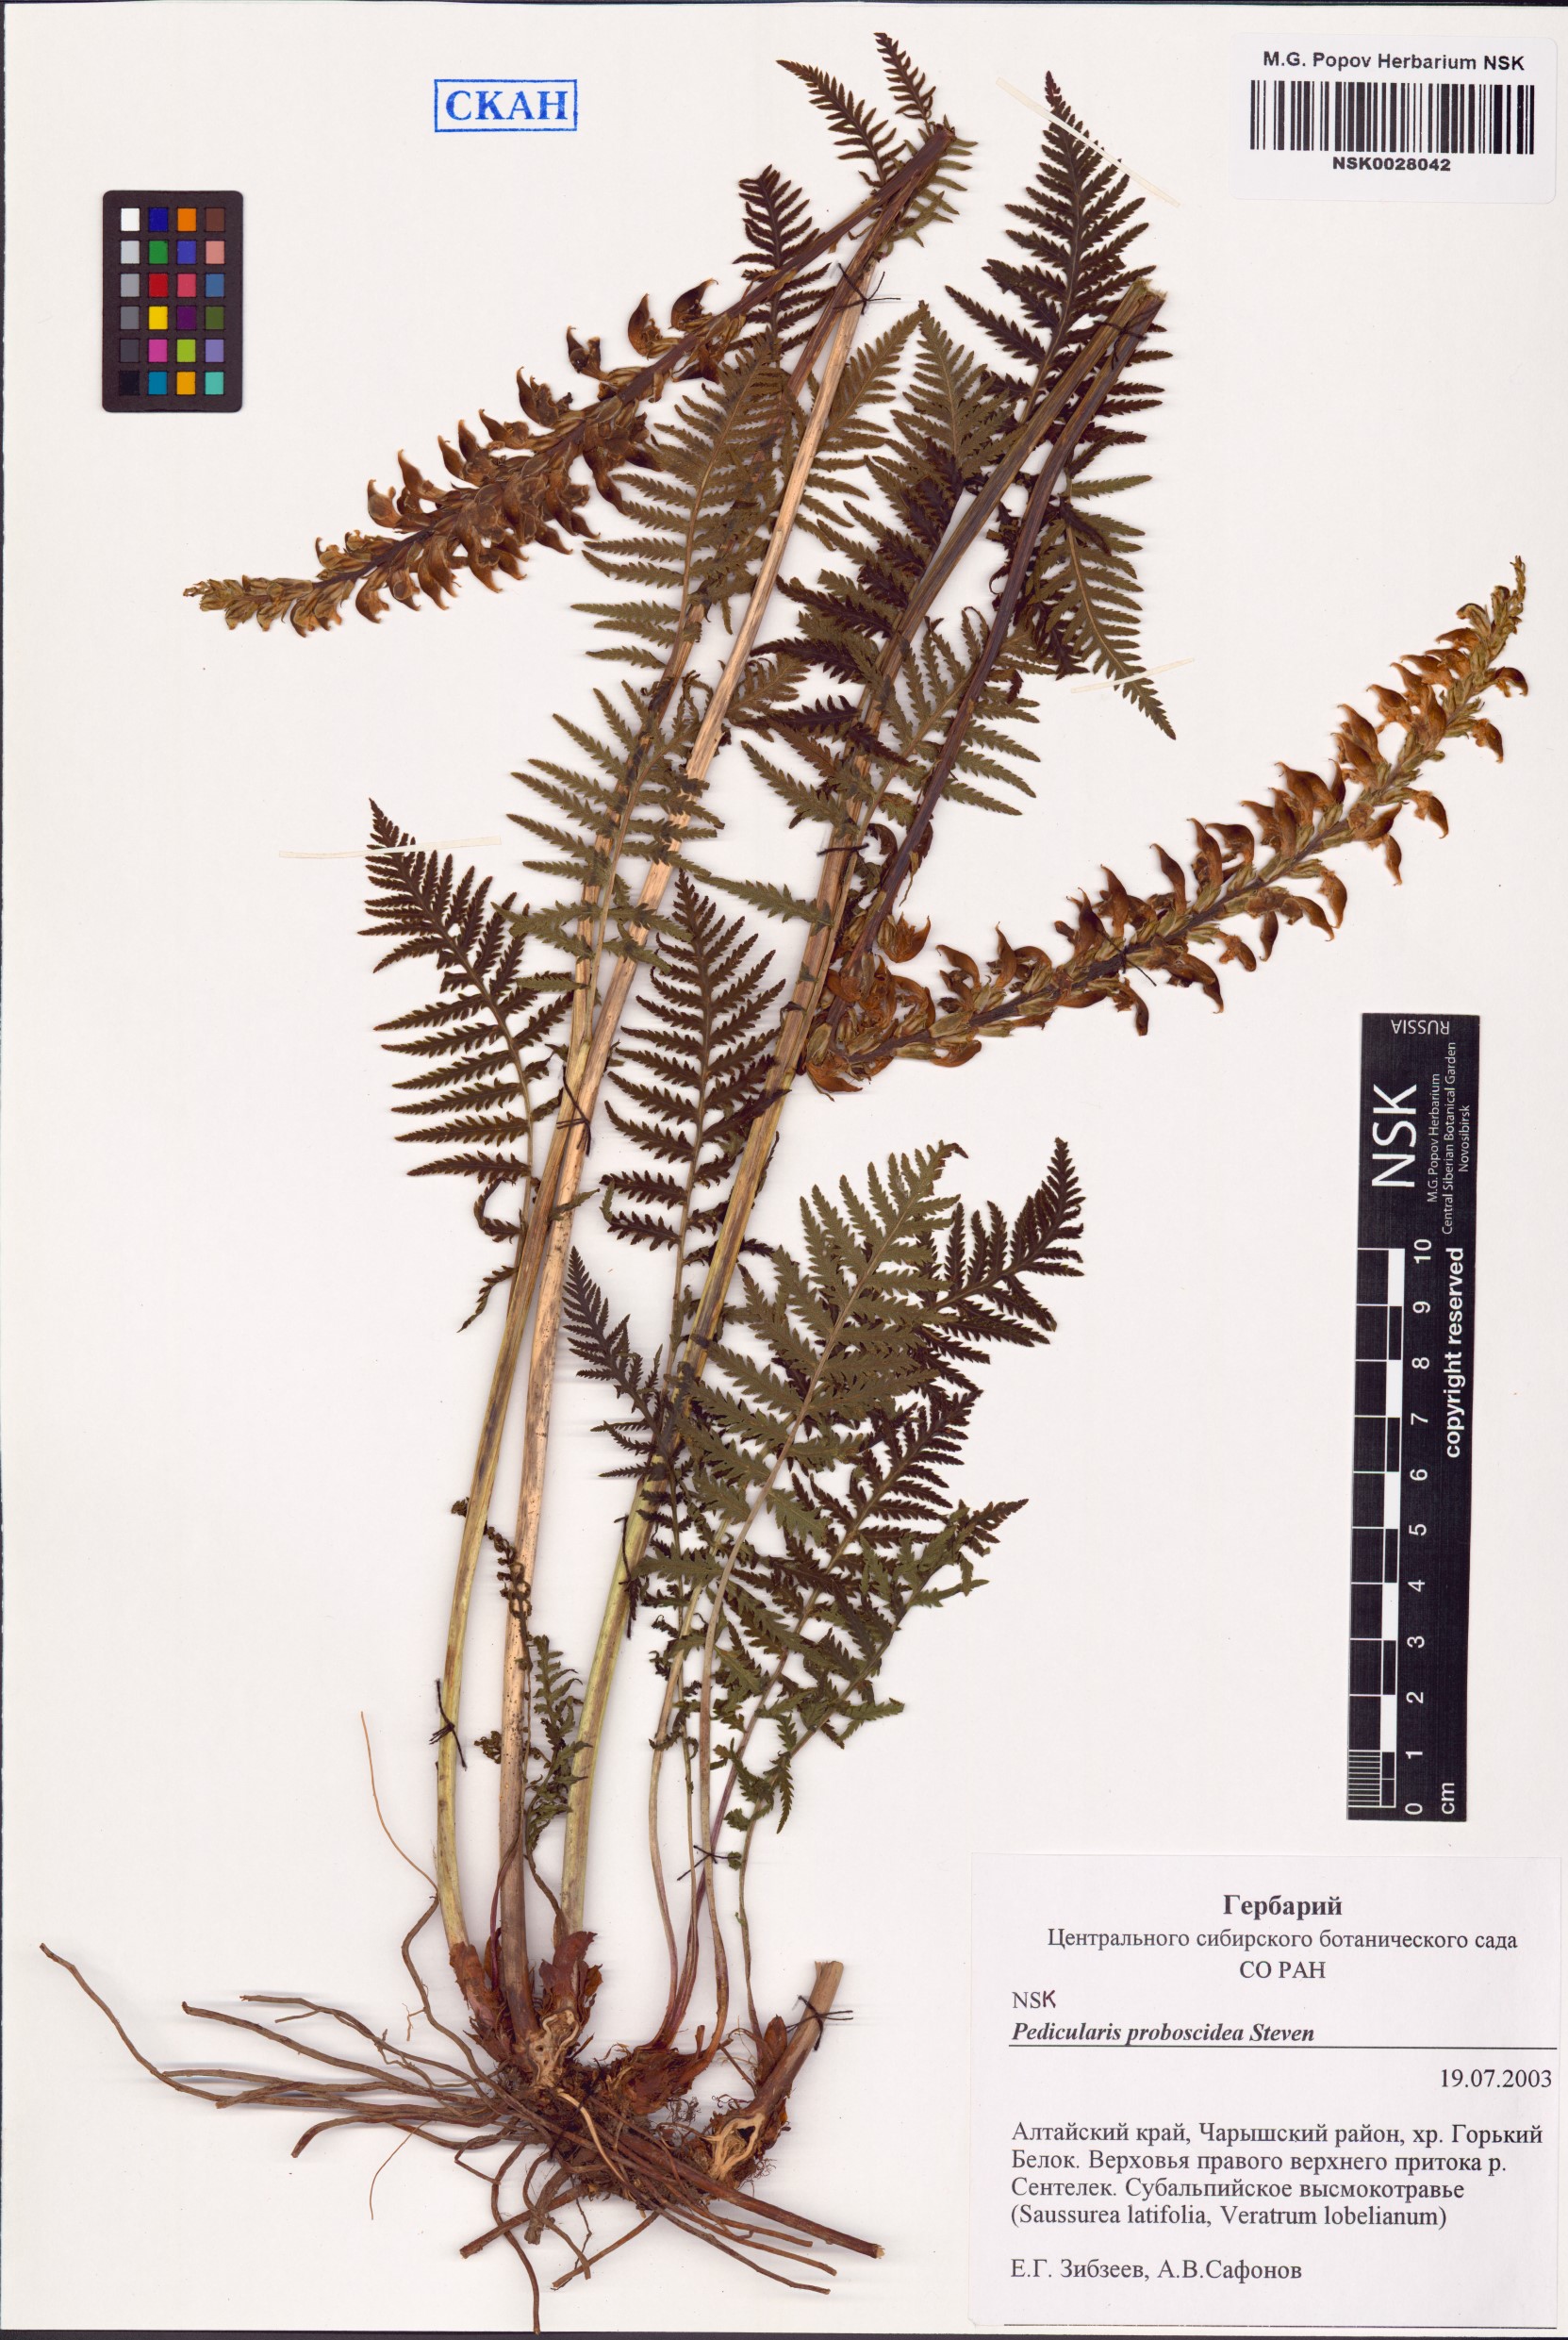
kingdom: Plantae
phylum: Tracheophyta
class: Magnoliopsida
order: Lamiales
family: Orobanchaceae
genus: Pedicularis
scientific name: Pedicularis proboscidea
